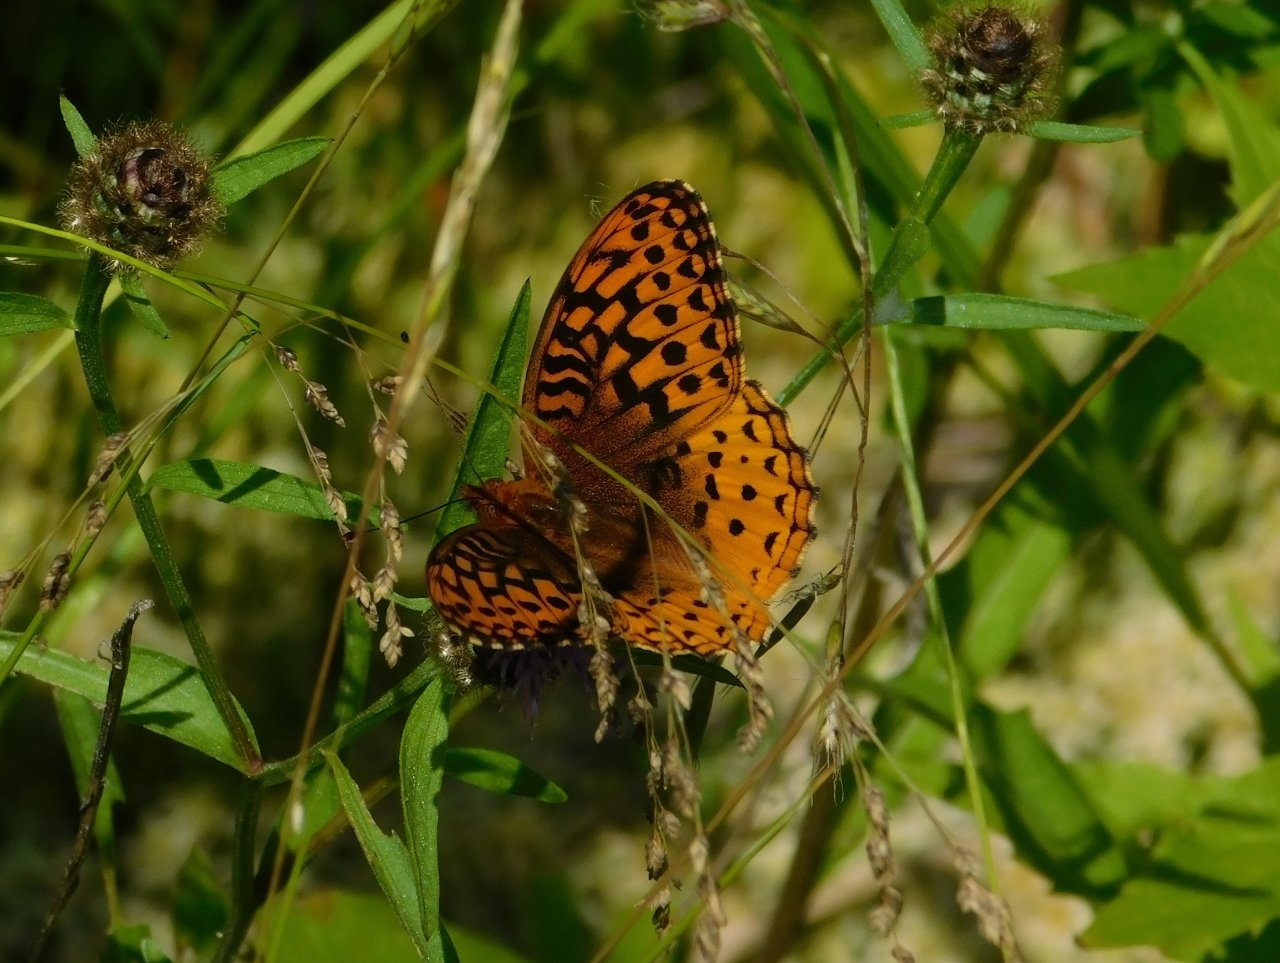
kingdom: Animalia
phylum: Arthropoda
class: Insecta
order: Lepidoptera
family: Nymphalidae
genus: Speyeria
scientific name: Speyeria cybele
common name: Great Spangled Fritillary
